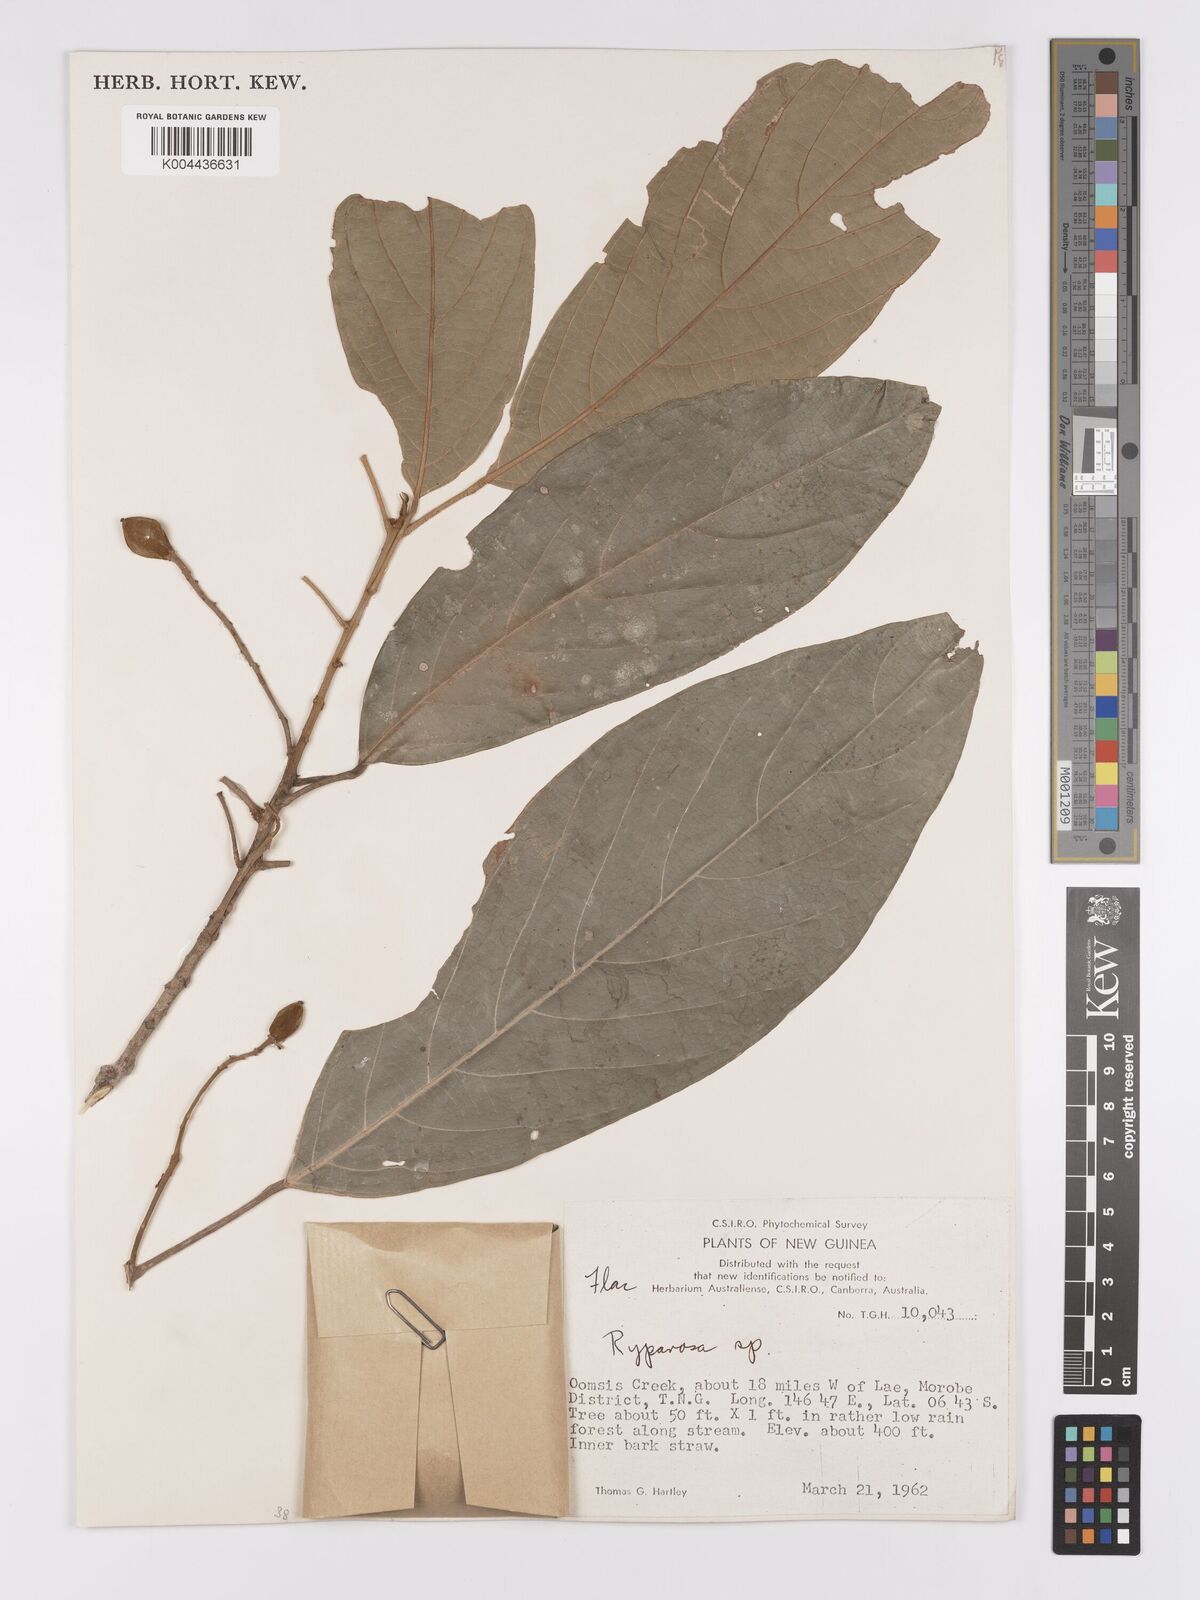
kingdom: Plantae
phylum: Tracheophyta
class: Magnoliopsida
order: Malpighiales
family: Achariaceae
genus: Ryparosa
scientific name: Ryparosa
